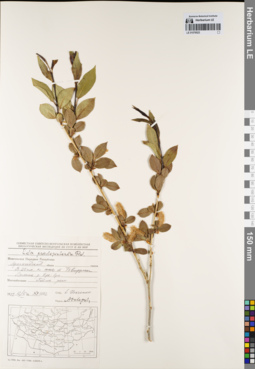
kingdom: Plantae
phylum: Tracheophyta
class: Magnoliopsida
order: Malpighiales
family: Salicaceae
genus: Salix
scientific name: Salix pseudopentandra
